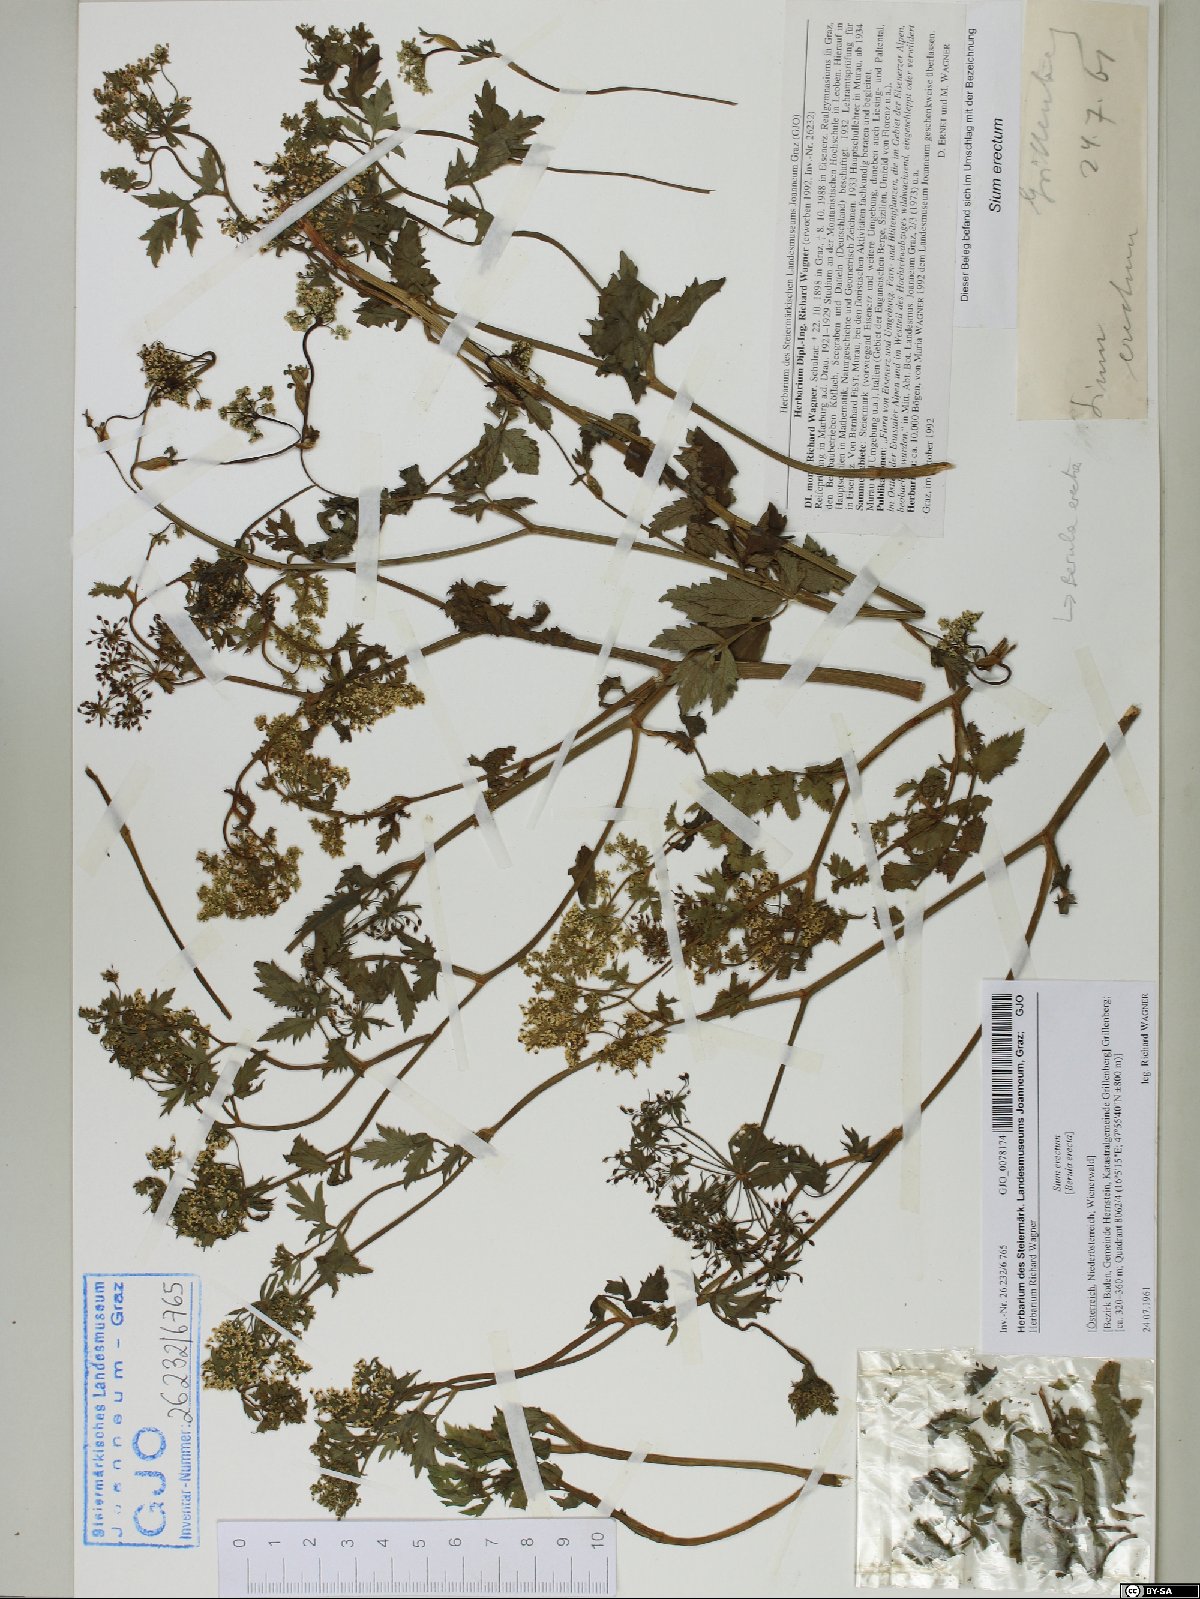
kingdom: Plantae
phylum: Tracheophyta
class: Magnoliopsida
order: Apiales
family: Apiaceae
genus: Berula
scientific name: Berula erecta
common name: Lesser water-parsnip
